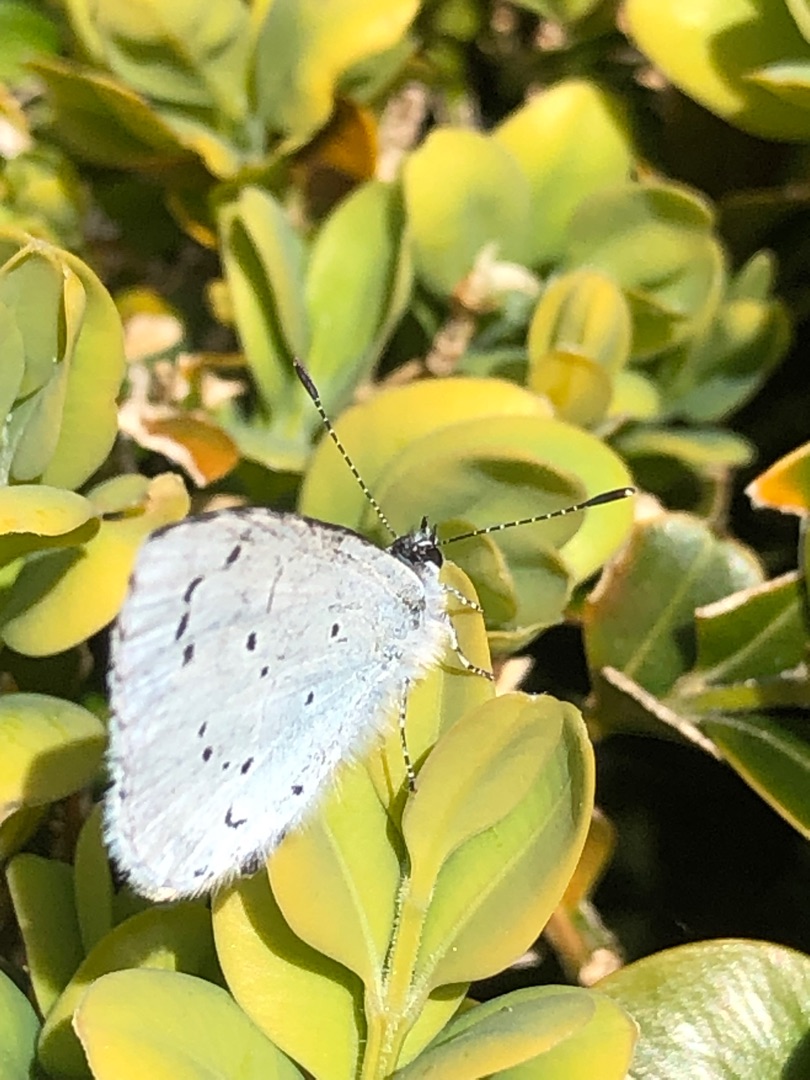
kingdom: Animalia
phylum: Arthropoda
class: Insecta
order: Lepidoptera
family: Lycaenidae
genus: Celastrina
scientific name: Celastrina argiolus
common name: Skovblåfugl
